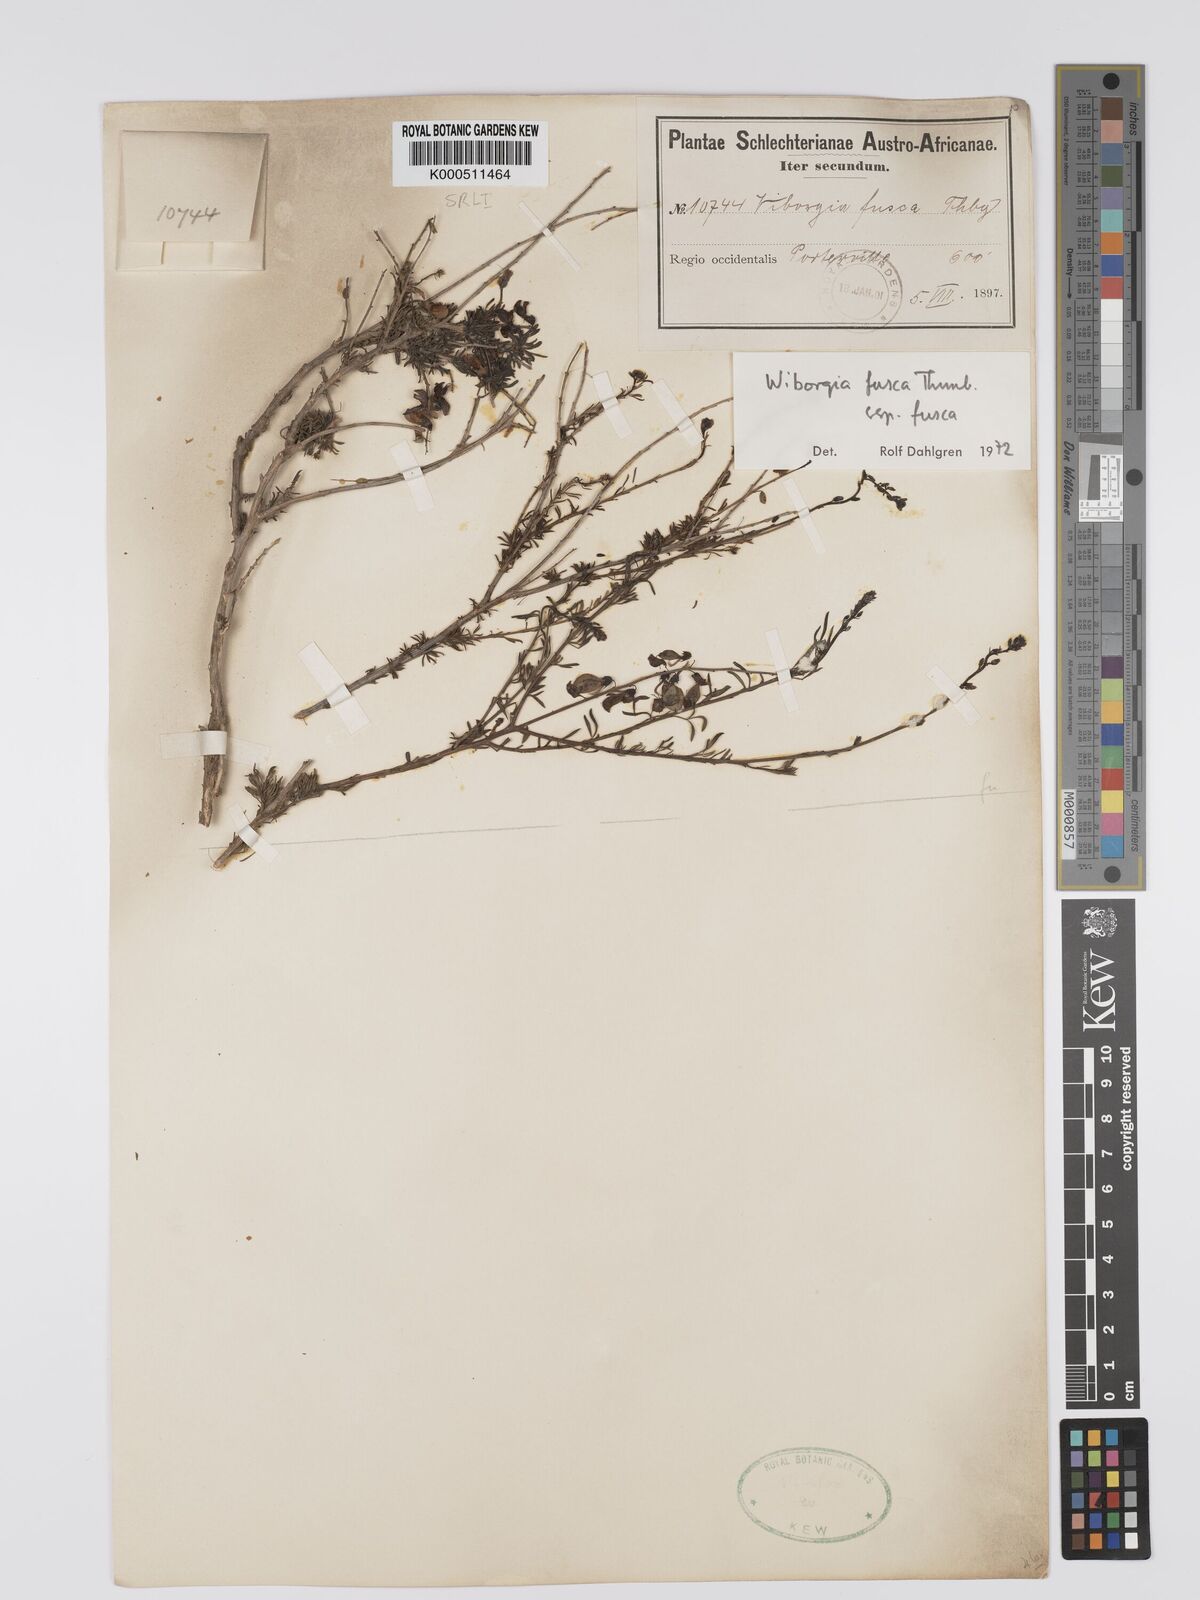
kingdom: Plantae
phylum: Tracheophyta
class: Magnoliopsida
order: Fabales
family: Fabaceae
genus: Wiborgia
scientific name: Wiborgia fusca
